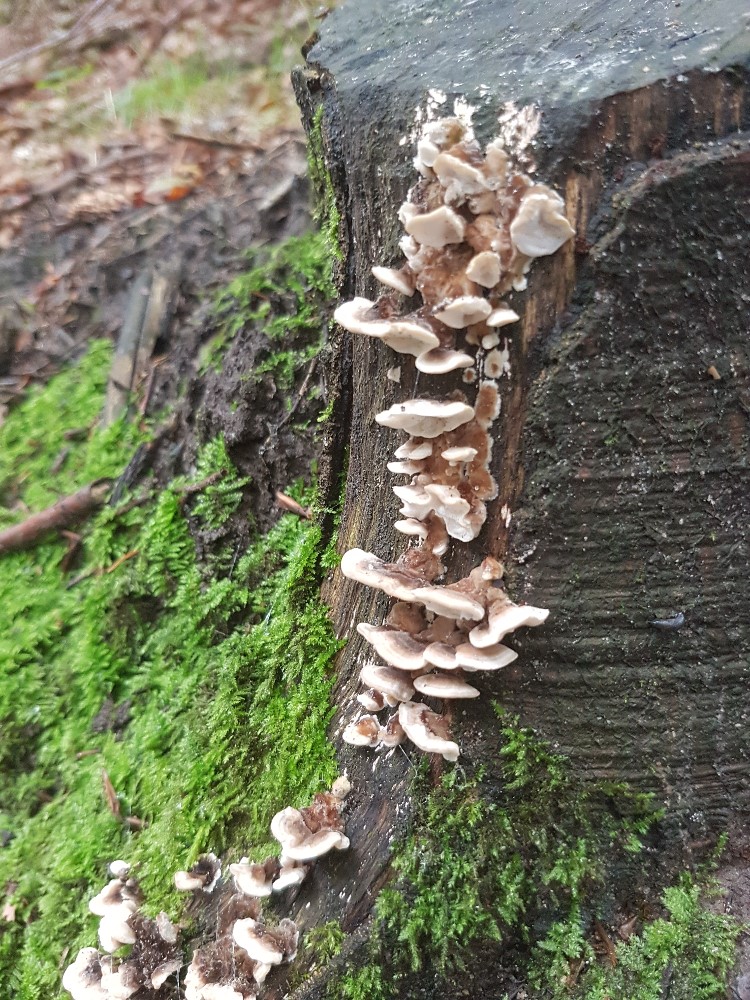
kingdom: Fungi
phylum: Basidiomycota
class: Agaricomycetes
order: Polyporales
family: Polyporaceae
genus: Trametes
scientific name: Trametes versicolor
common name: broget læderporesvamp
